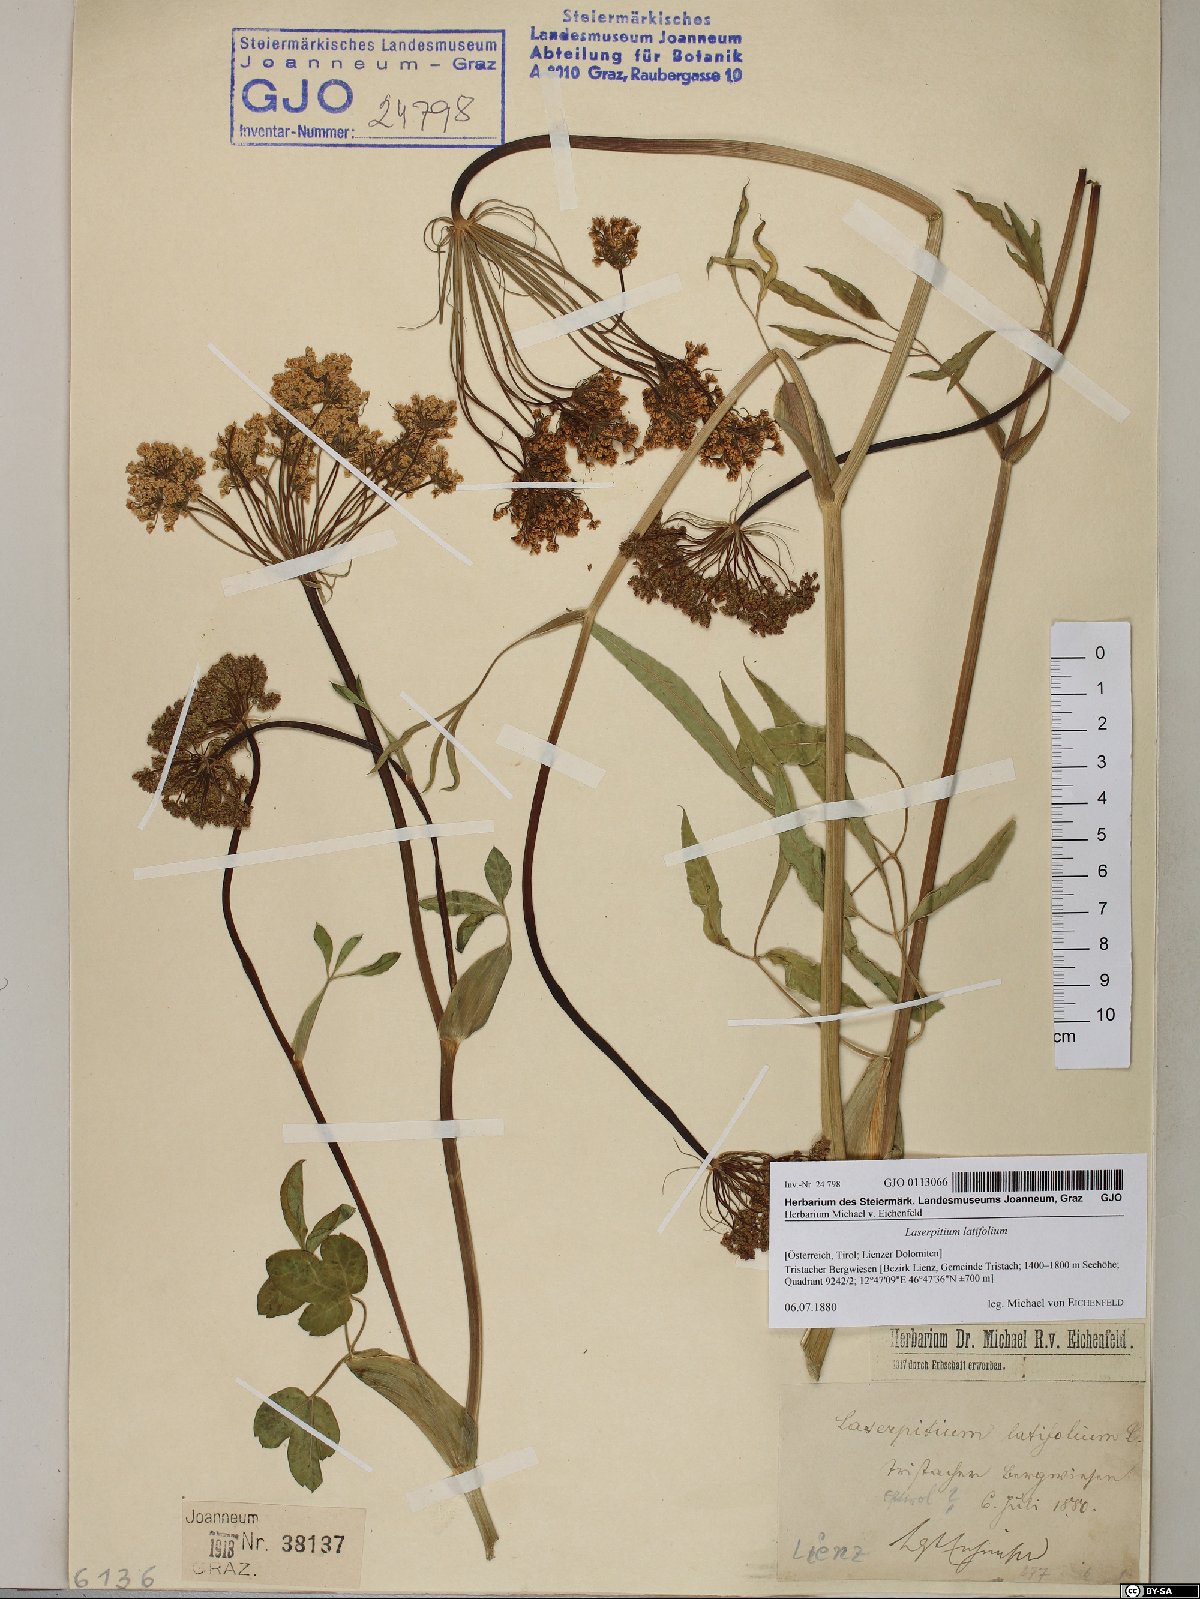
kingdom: Plantae
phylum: Tracheophyta
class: Magnoliopsida
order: Apiales
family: Apiaceae
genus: Laserpitium
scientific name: Laserpitium latifolium
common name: Broadleaf sermountain
